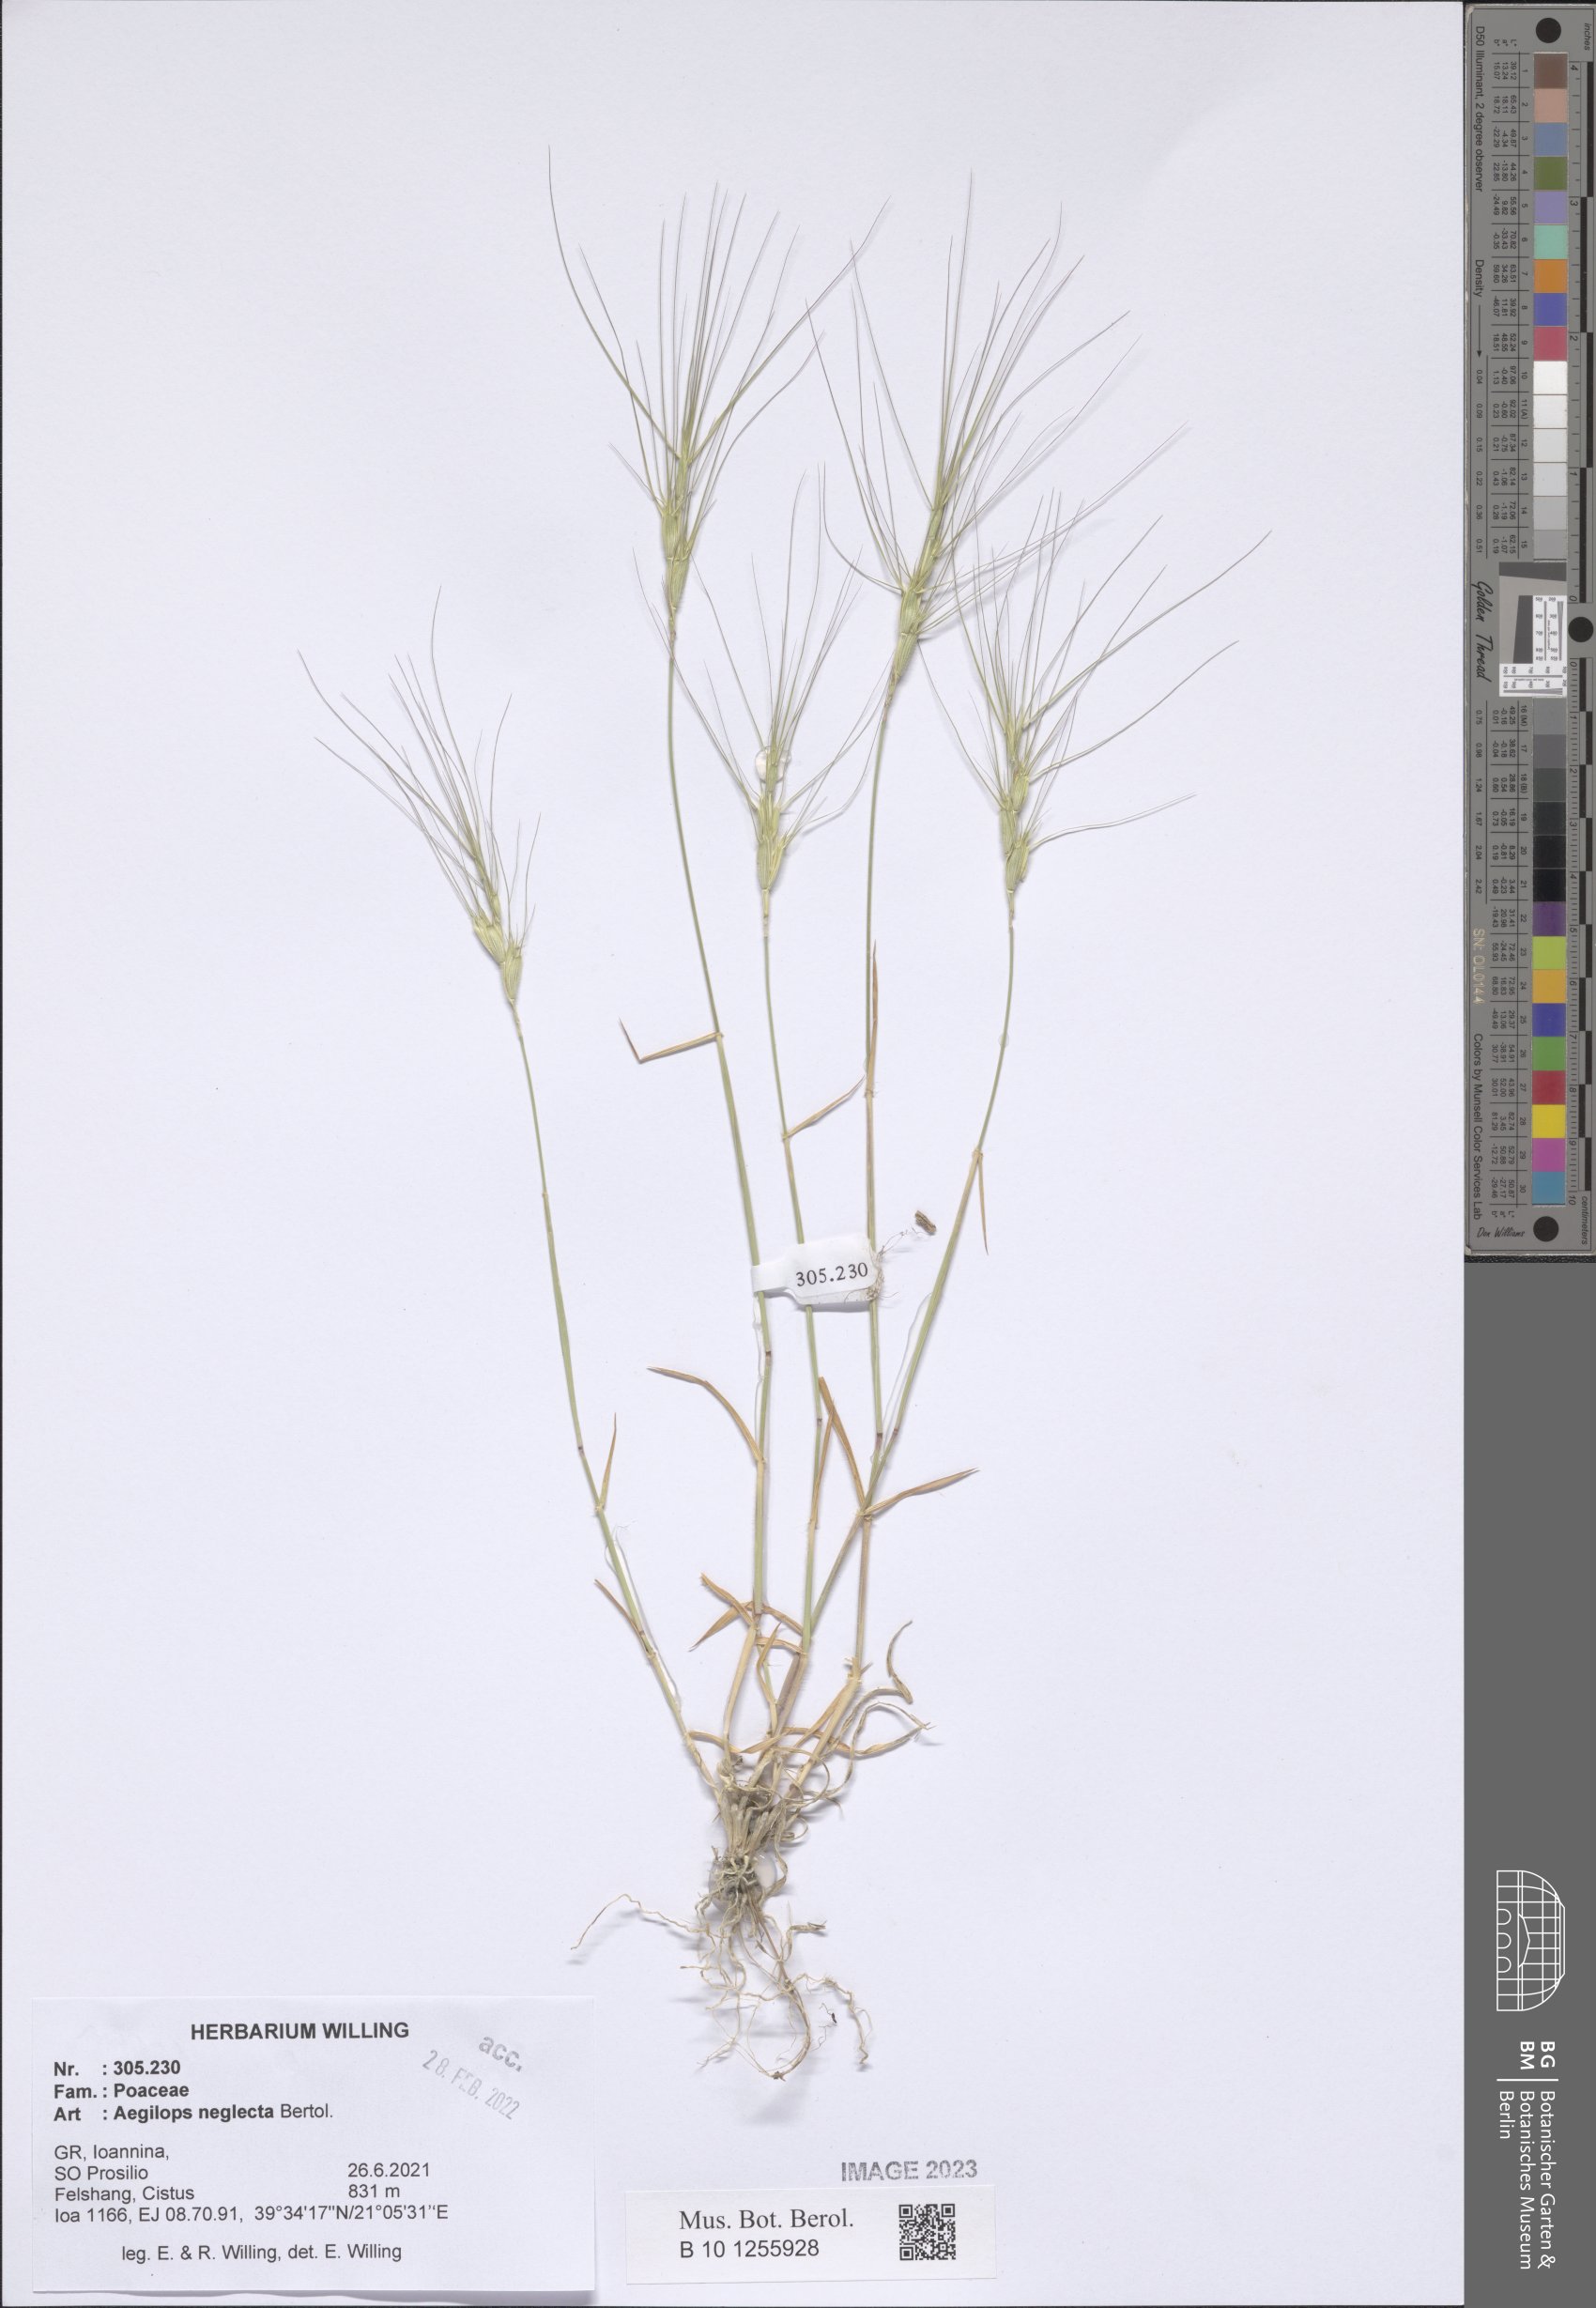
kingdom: Plantae
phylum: Tracheophyta
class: Liliopsida
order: Poales
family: Poaceae
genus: Aegilops
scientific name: Aegilops neglecta
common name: Three-awn goat grass
